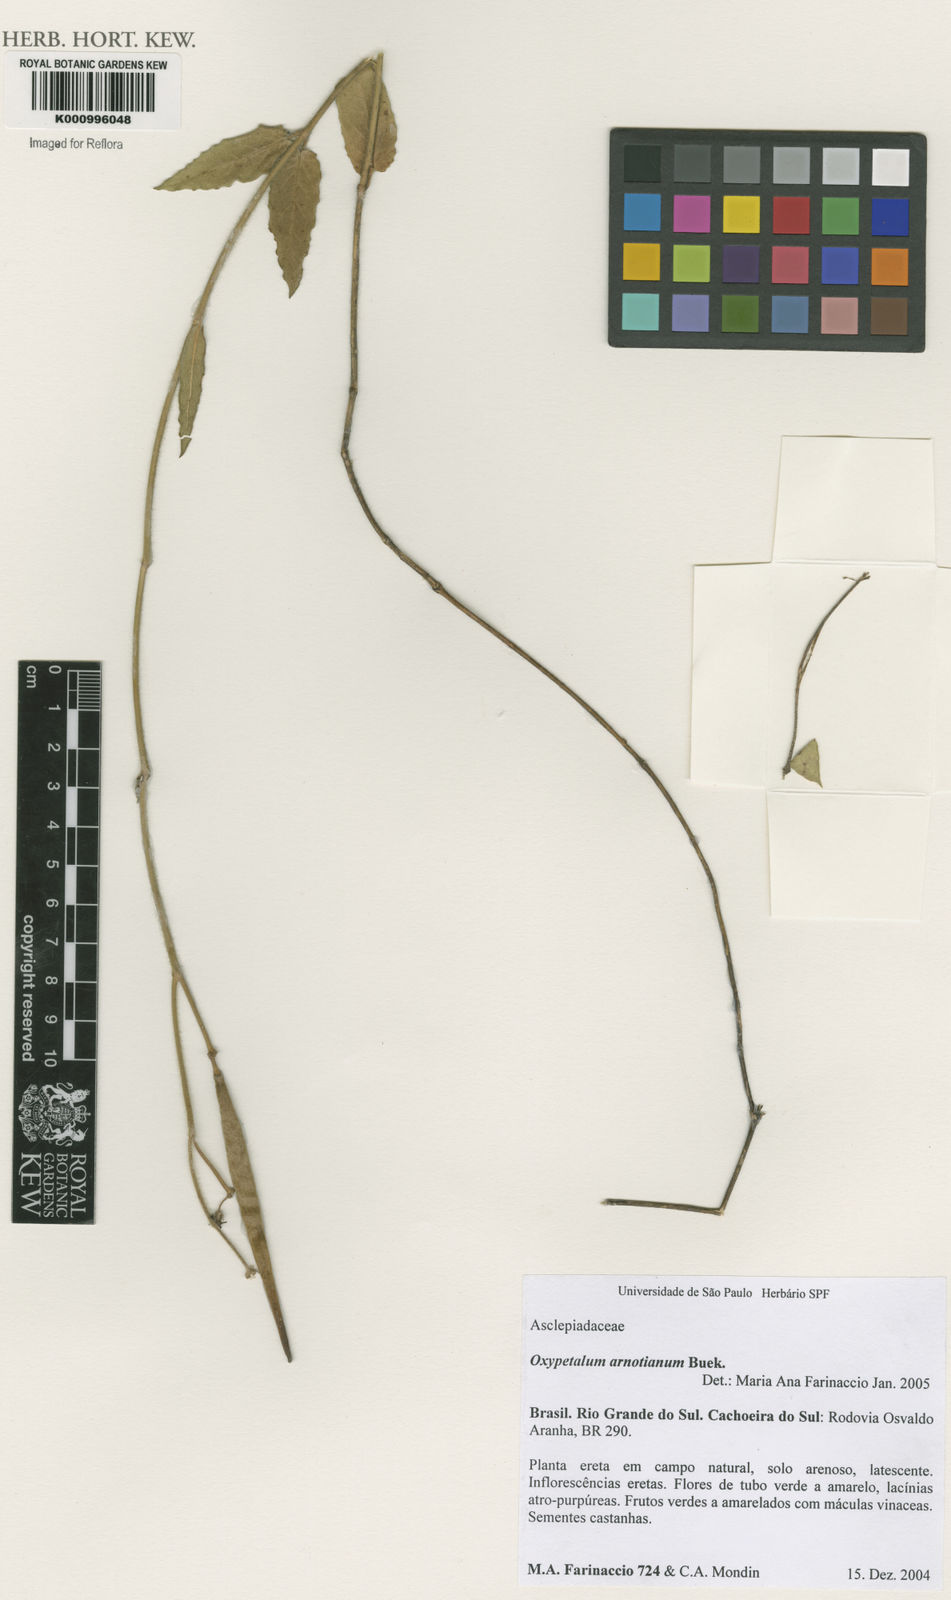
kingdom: Plantae
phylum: Tracheophyta
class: Magnoliopsida
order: Gentianales
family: Apocynaceae
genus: Oxypetalum
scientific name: Oxypetalum
